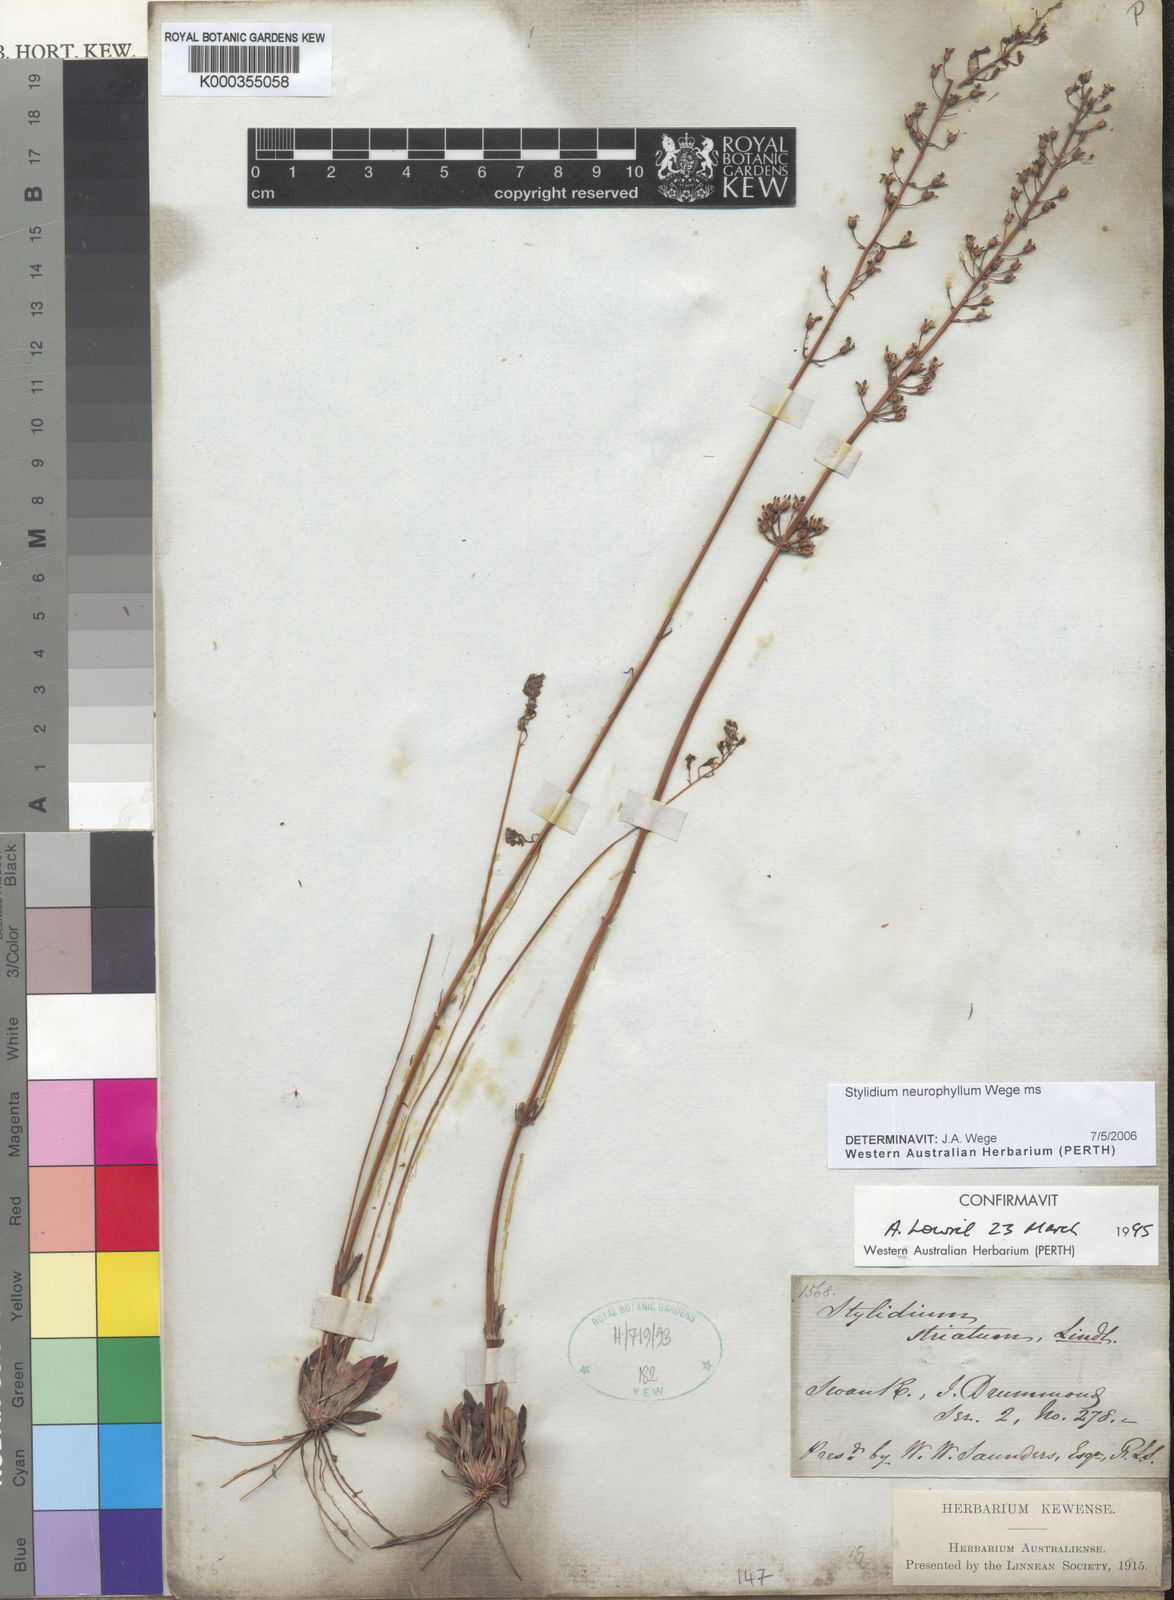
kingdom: Plantae
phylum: Tracheophyta
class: Magnoliopsida
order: Asterales
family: Stylidiaceae
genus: Stylidium
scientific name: Stylidium
